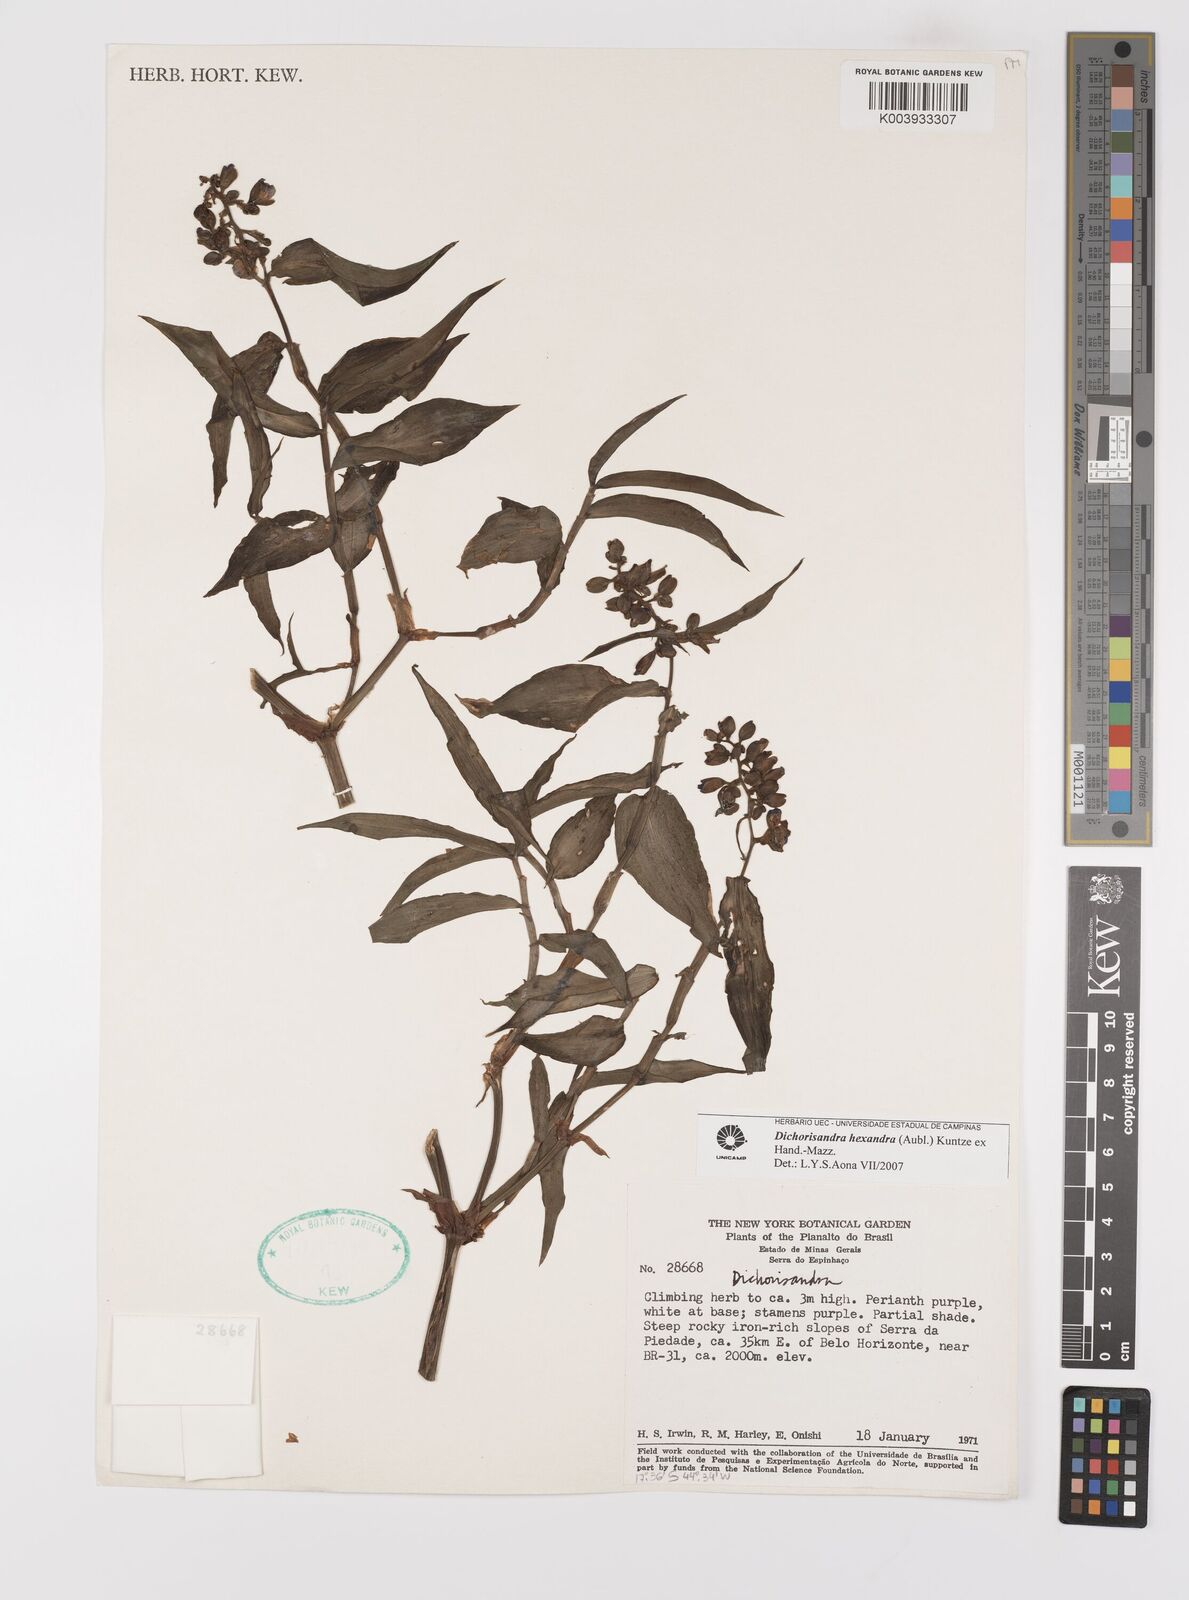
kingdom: Plantae
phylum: Tracheophyta
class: Liliopsida
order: Commelinales
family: Commelinaceae
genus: Dichorisandra
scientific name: Dichorisandra hexandra
